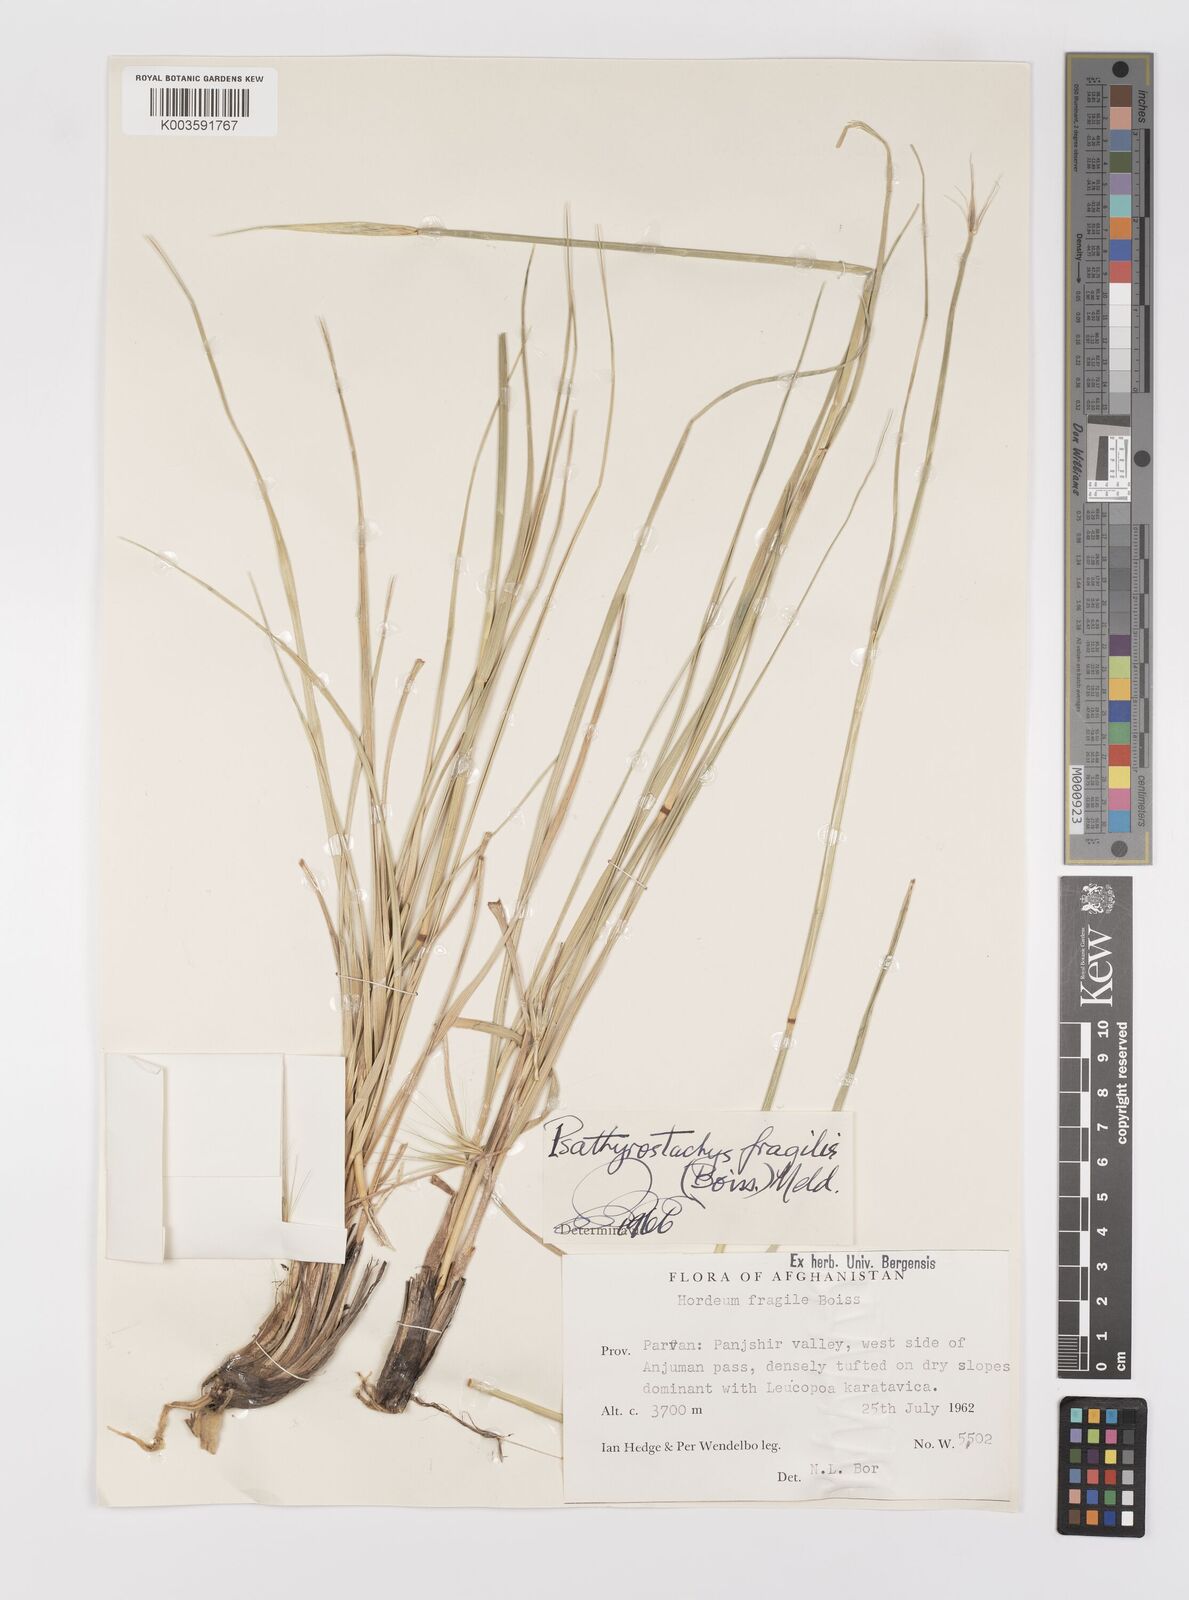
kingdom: Plantae
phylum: Tracheophyta
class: Liliopsida
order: Poales
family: Poaceae
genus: Psathyrostachys
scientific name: Psathyrostachys fragilis
